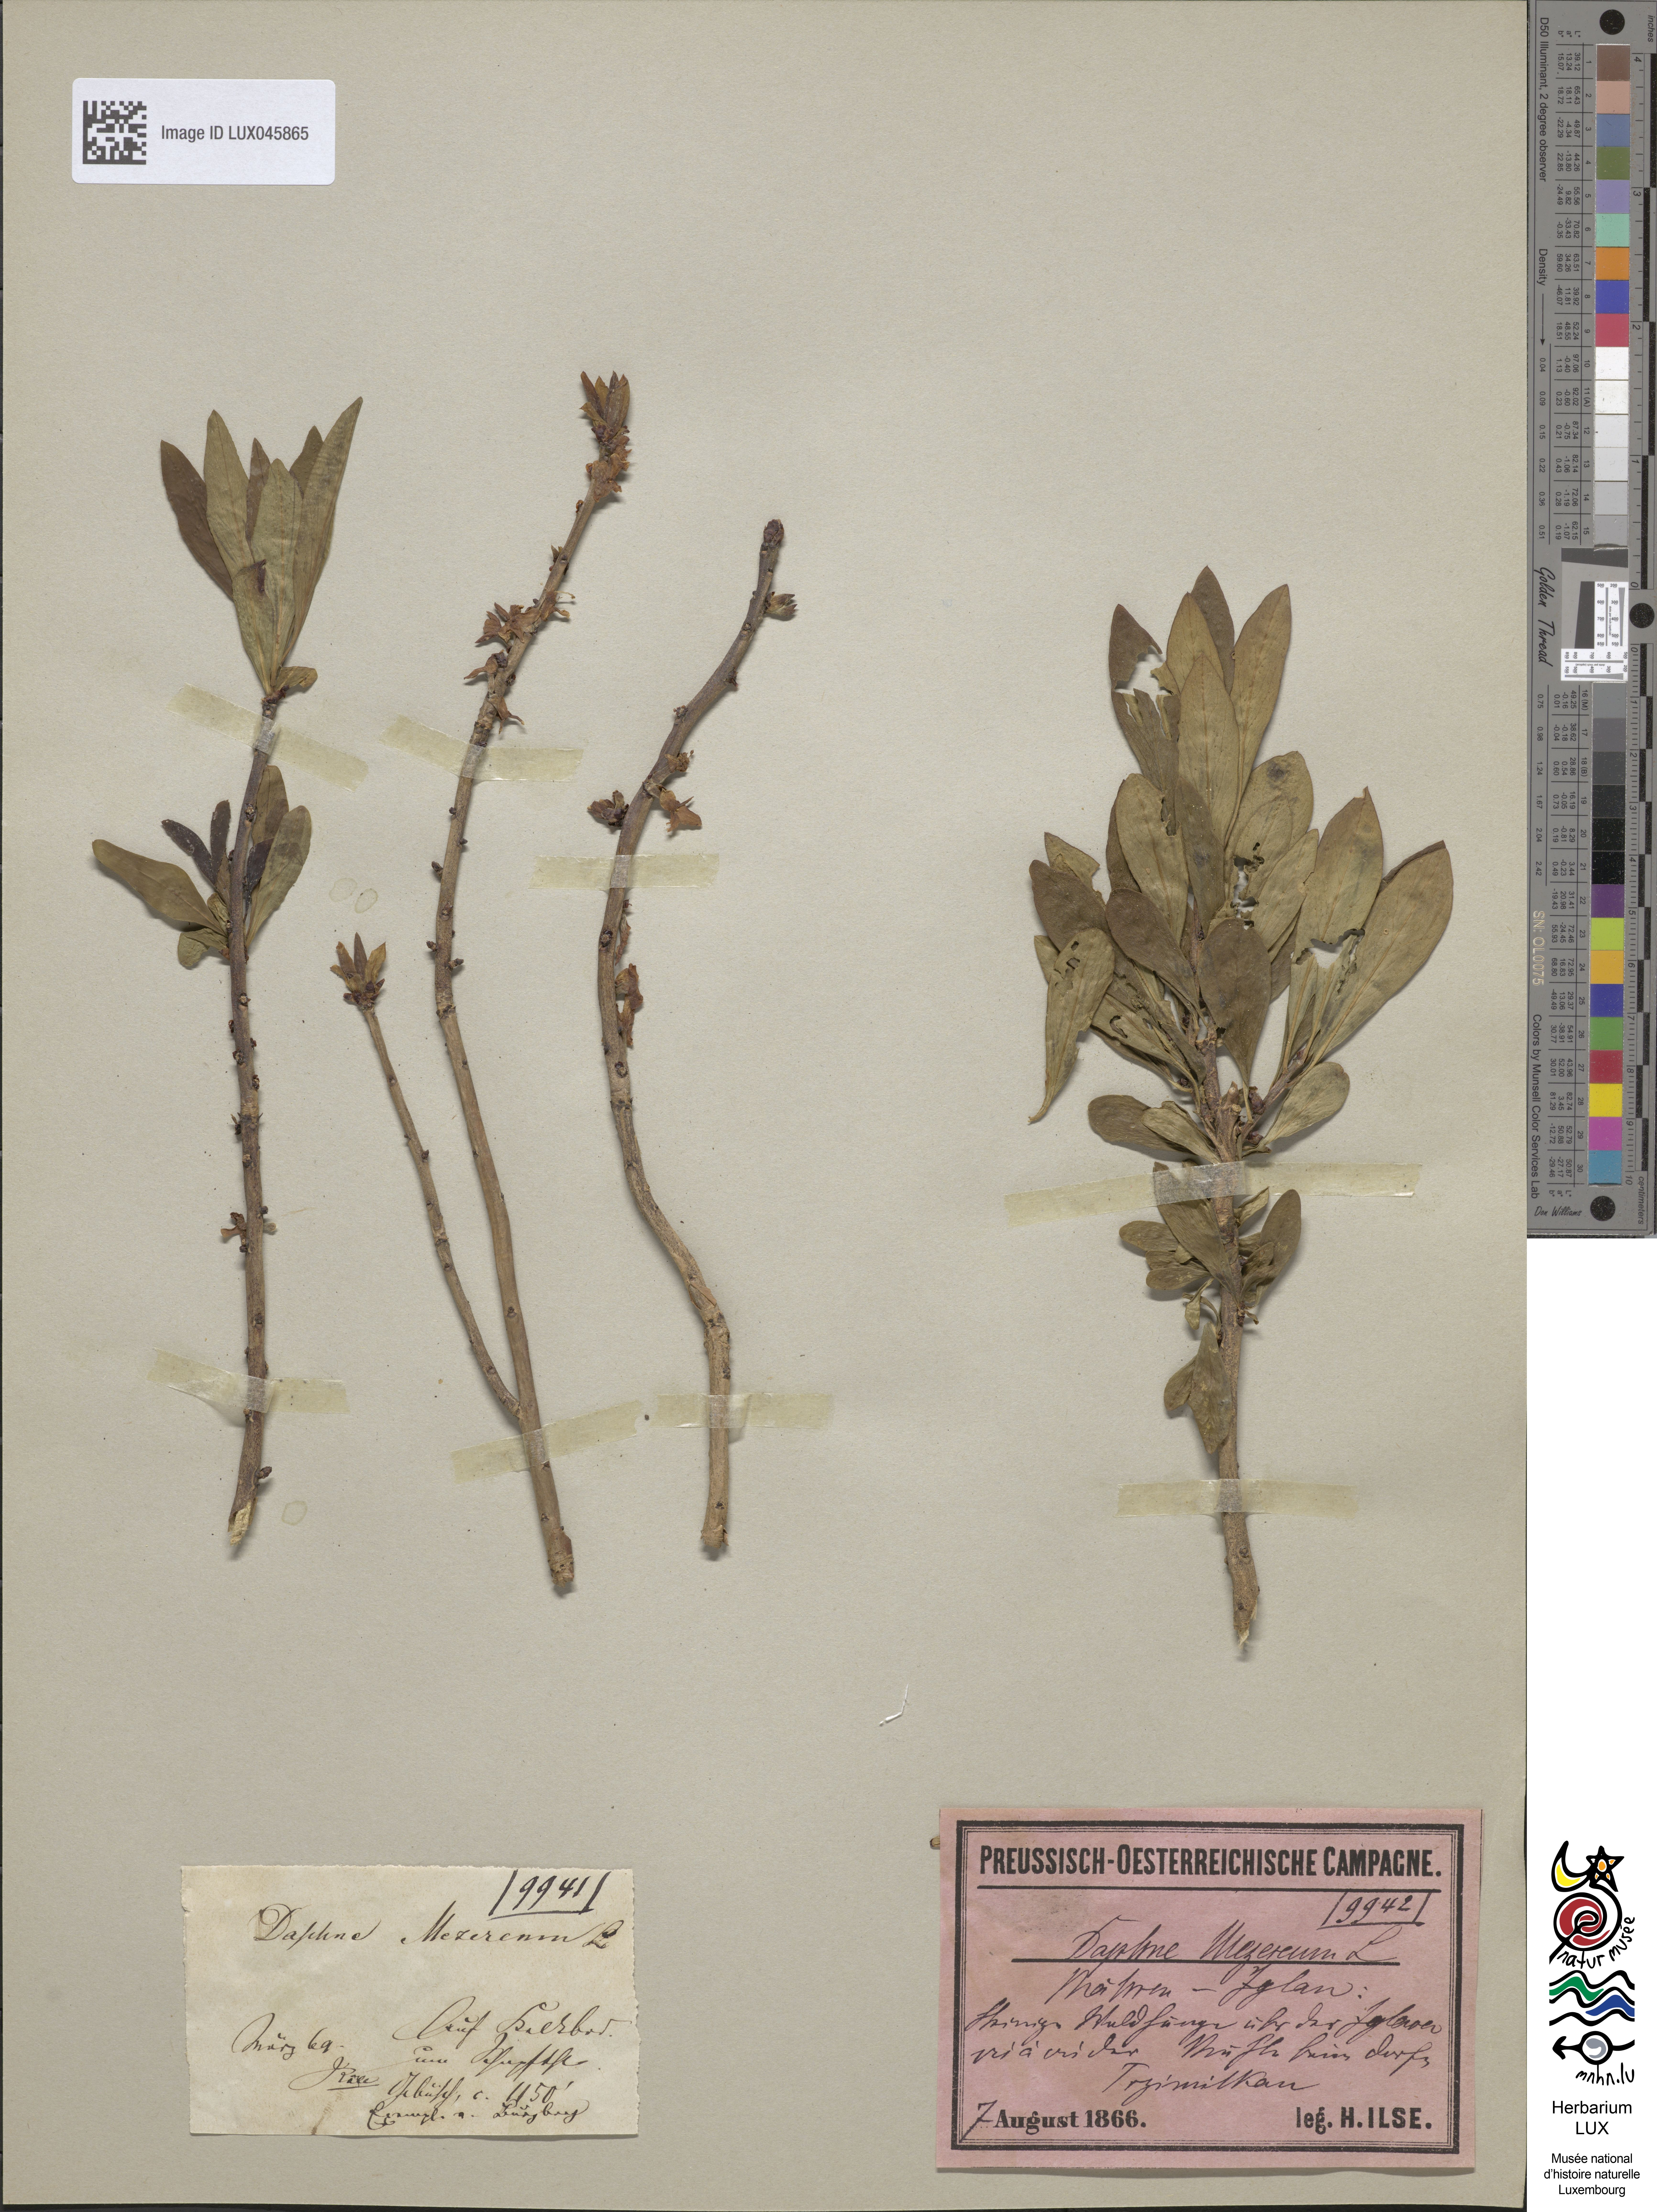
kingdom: Plantae
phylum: Tracheophyta
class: Magnoliopsida
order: Malvales
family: Thymelaeaceae
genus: Daphne
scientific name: Daphne mezereum
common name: Mezereon
